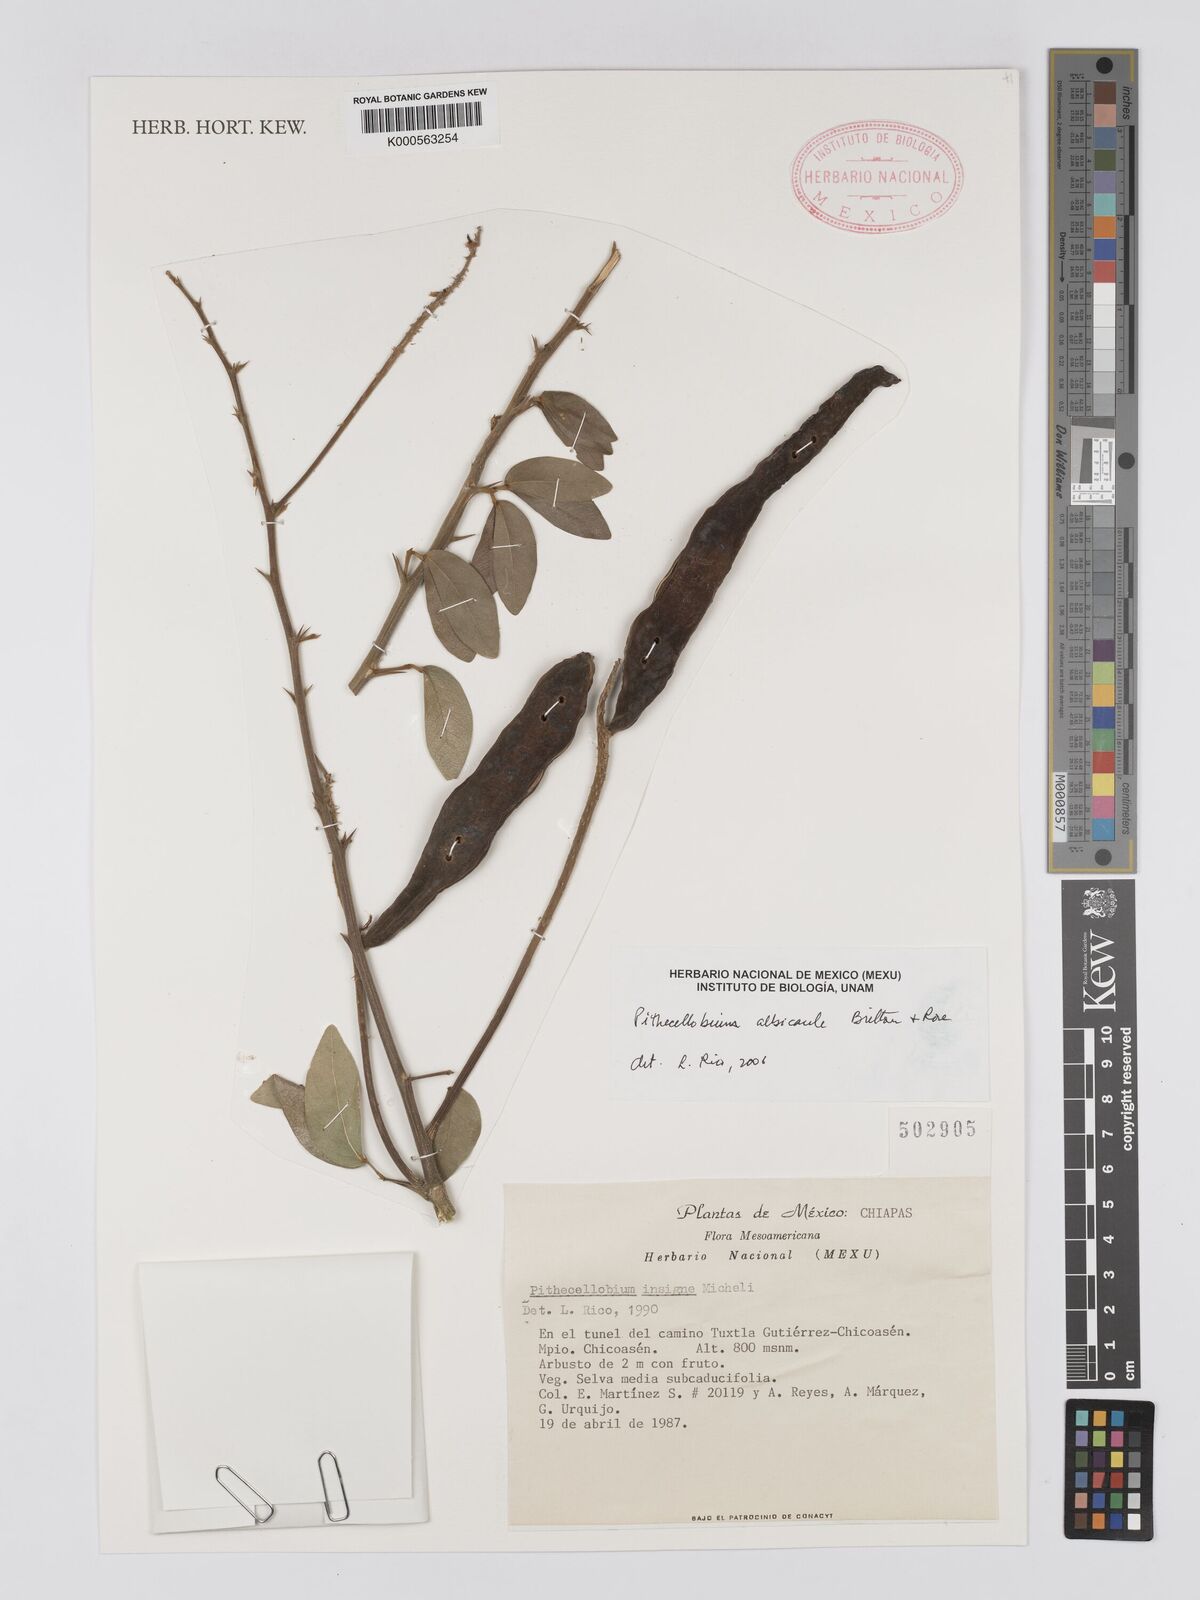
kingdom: Plantae
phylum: Tracheophyta
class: Magnoliopsida
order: Fabales
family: Fabaceae
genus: Pithecellobium
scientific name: Pithecellobium lanceolatum
